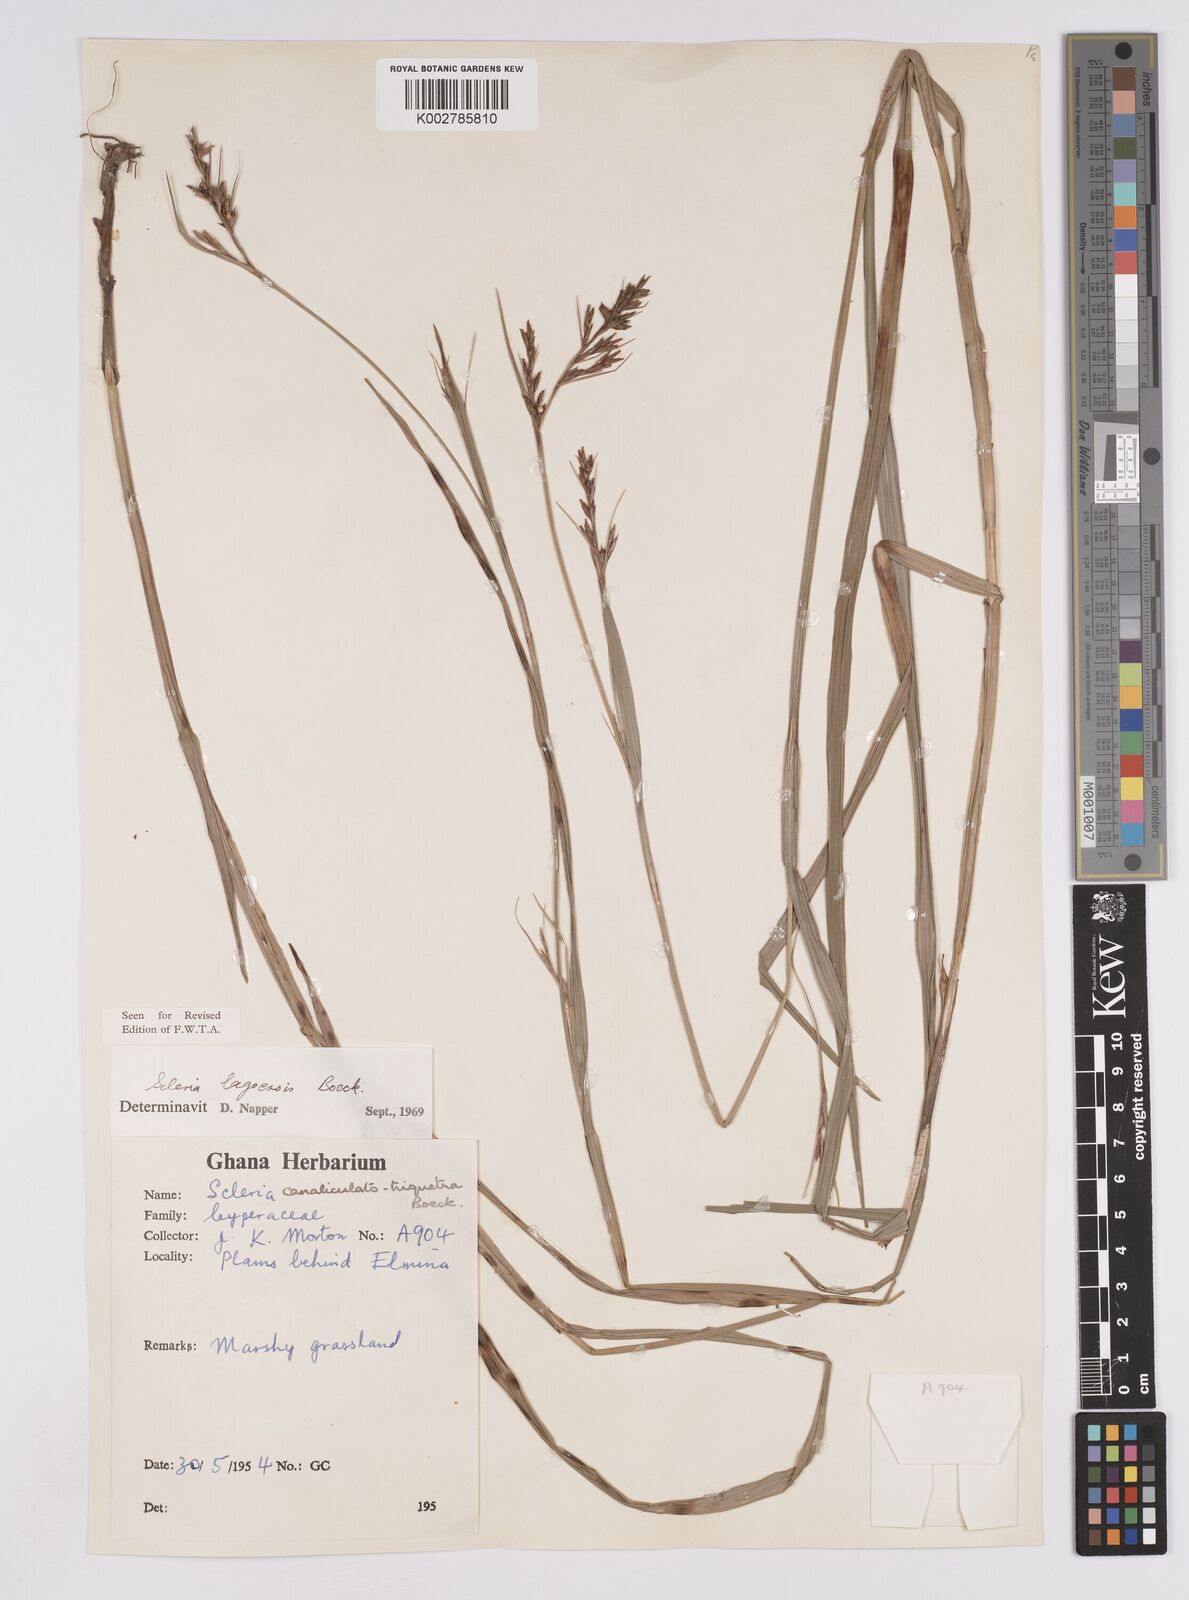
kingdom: Plantae
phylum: Tracheophyta
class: Liliopsida
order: Poales
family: Cyperaceae
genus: Scleria
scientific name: Scleria lagoensis
